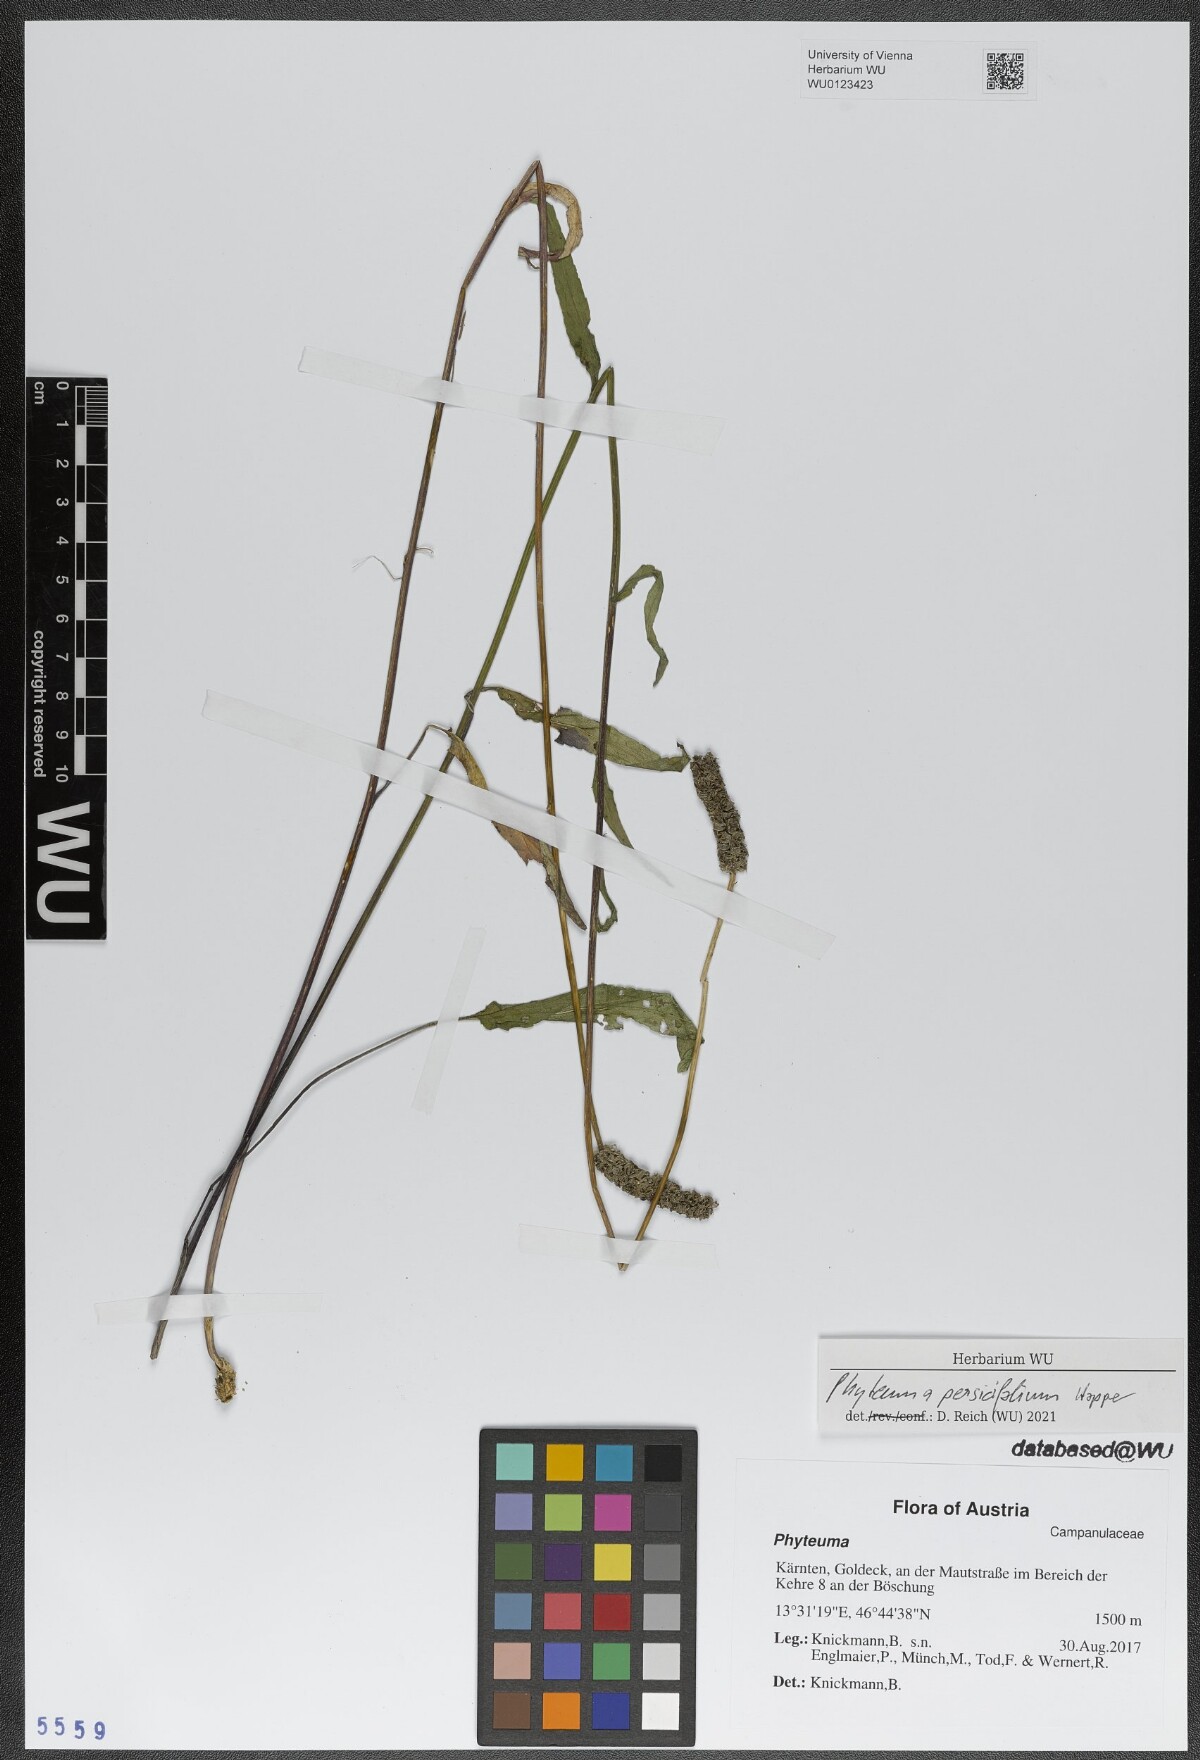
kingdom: Plantae
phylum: Tracheophyta
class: Magnoliopsida
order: Asterales
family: Campanulaceae
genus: Phyteuma
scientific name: Phyteuma persicifolium
